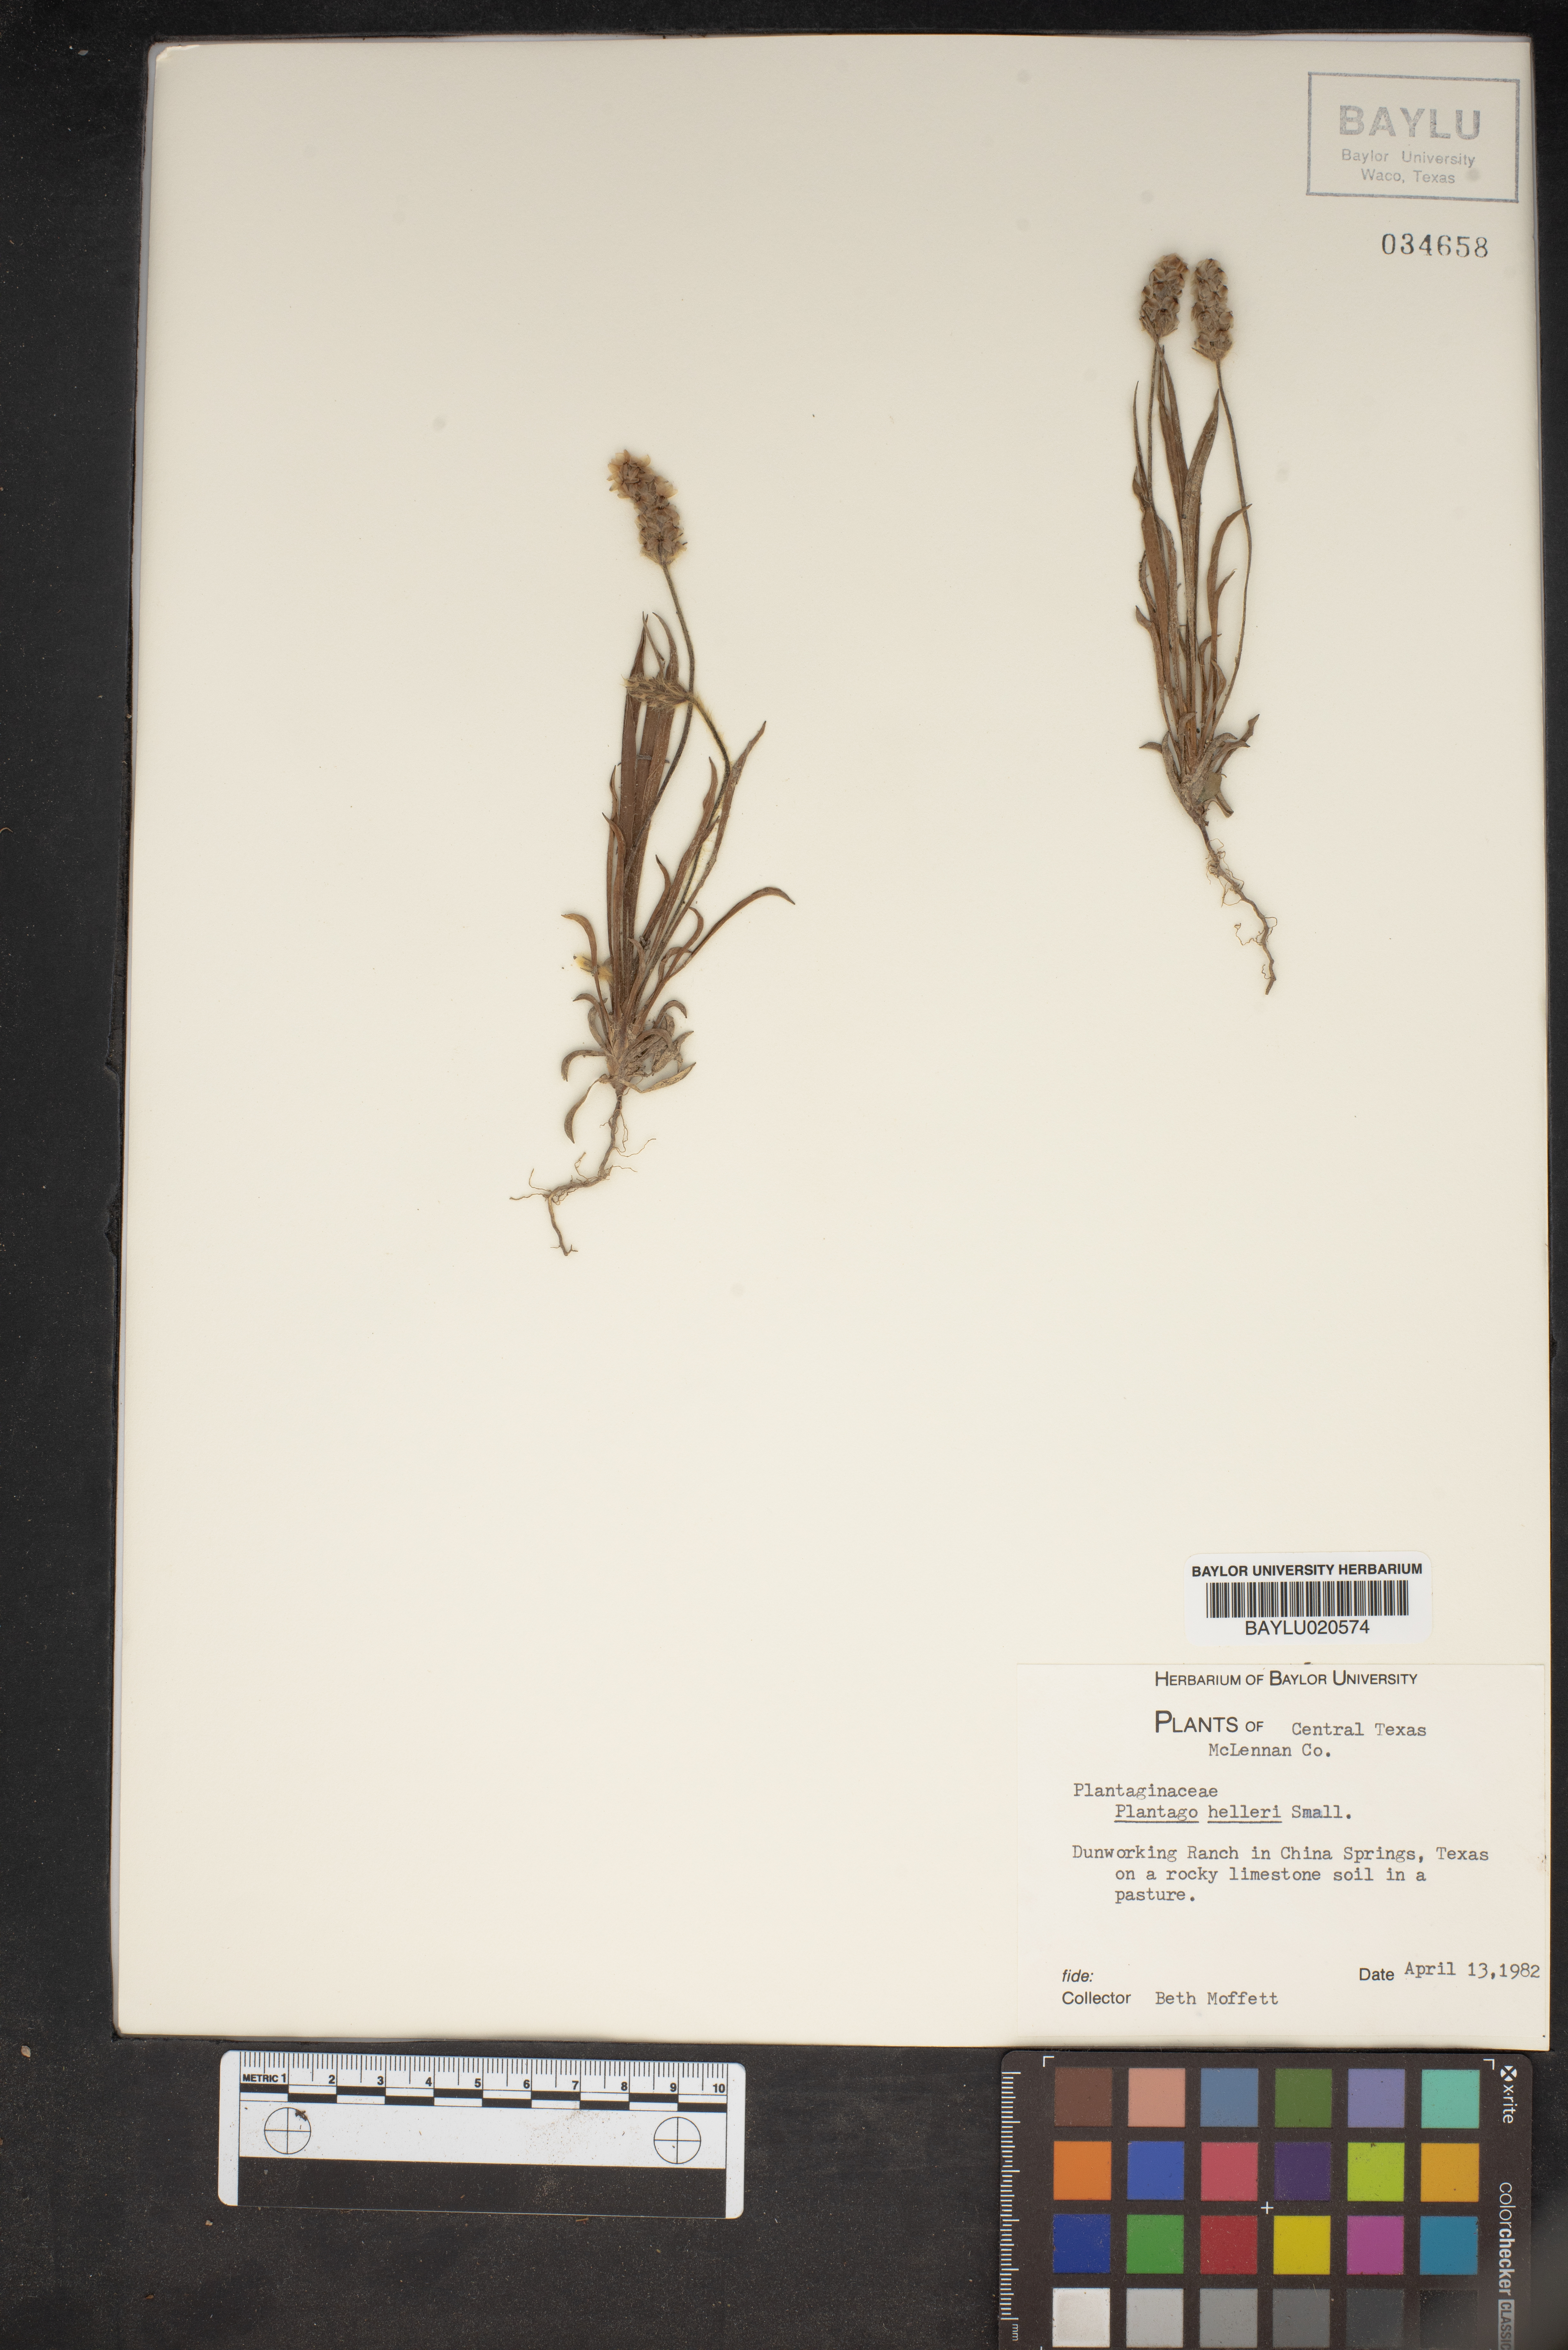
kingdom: Plantae
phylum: Tracheophyta
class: Magnoliopsida
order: Lamiales
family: Plantaginaceae
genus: Plantago
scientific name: Plantago helleri
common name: Heller's plantain
